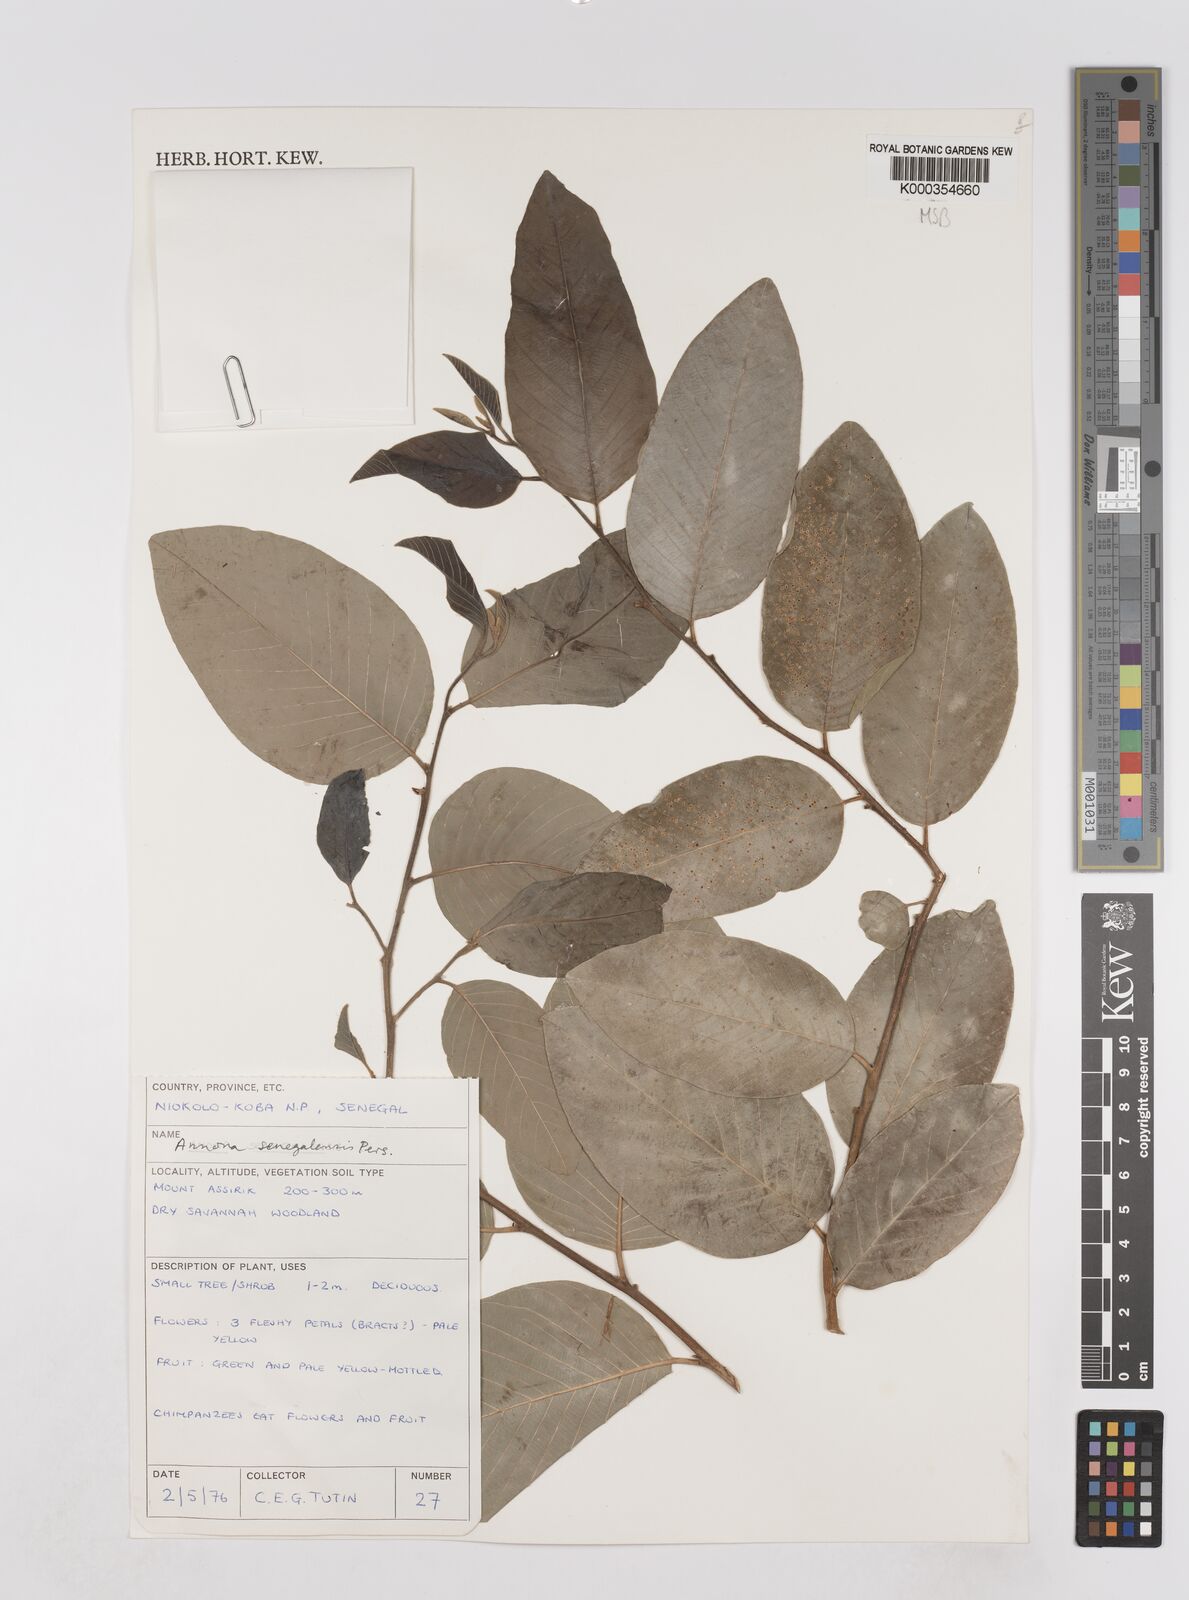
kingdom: Plantae
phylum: Tracheophyta
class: Magnoliopsida
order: Magnoliales
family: Annonaceae
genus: Annona
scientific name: Annona senegalensis
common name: Wild custard-apple
